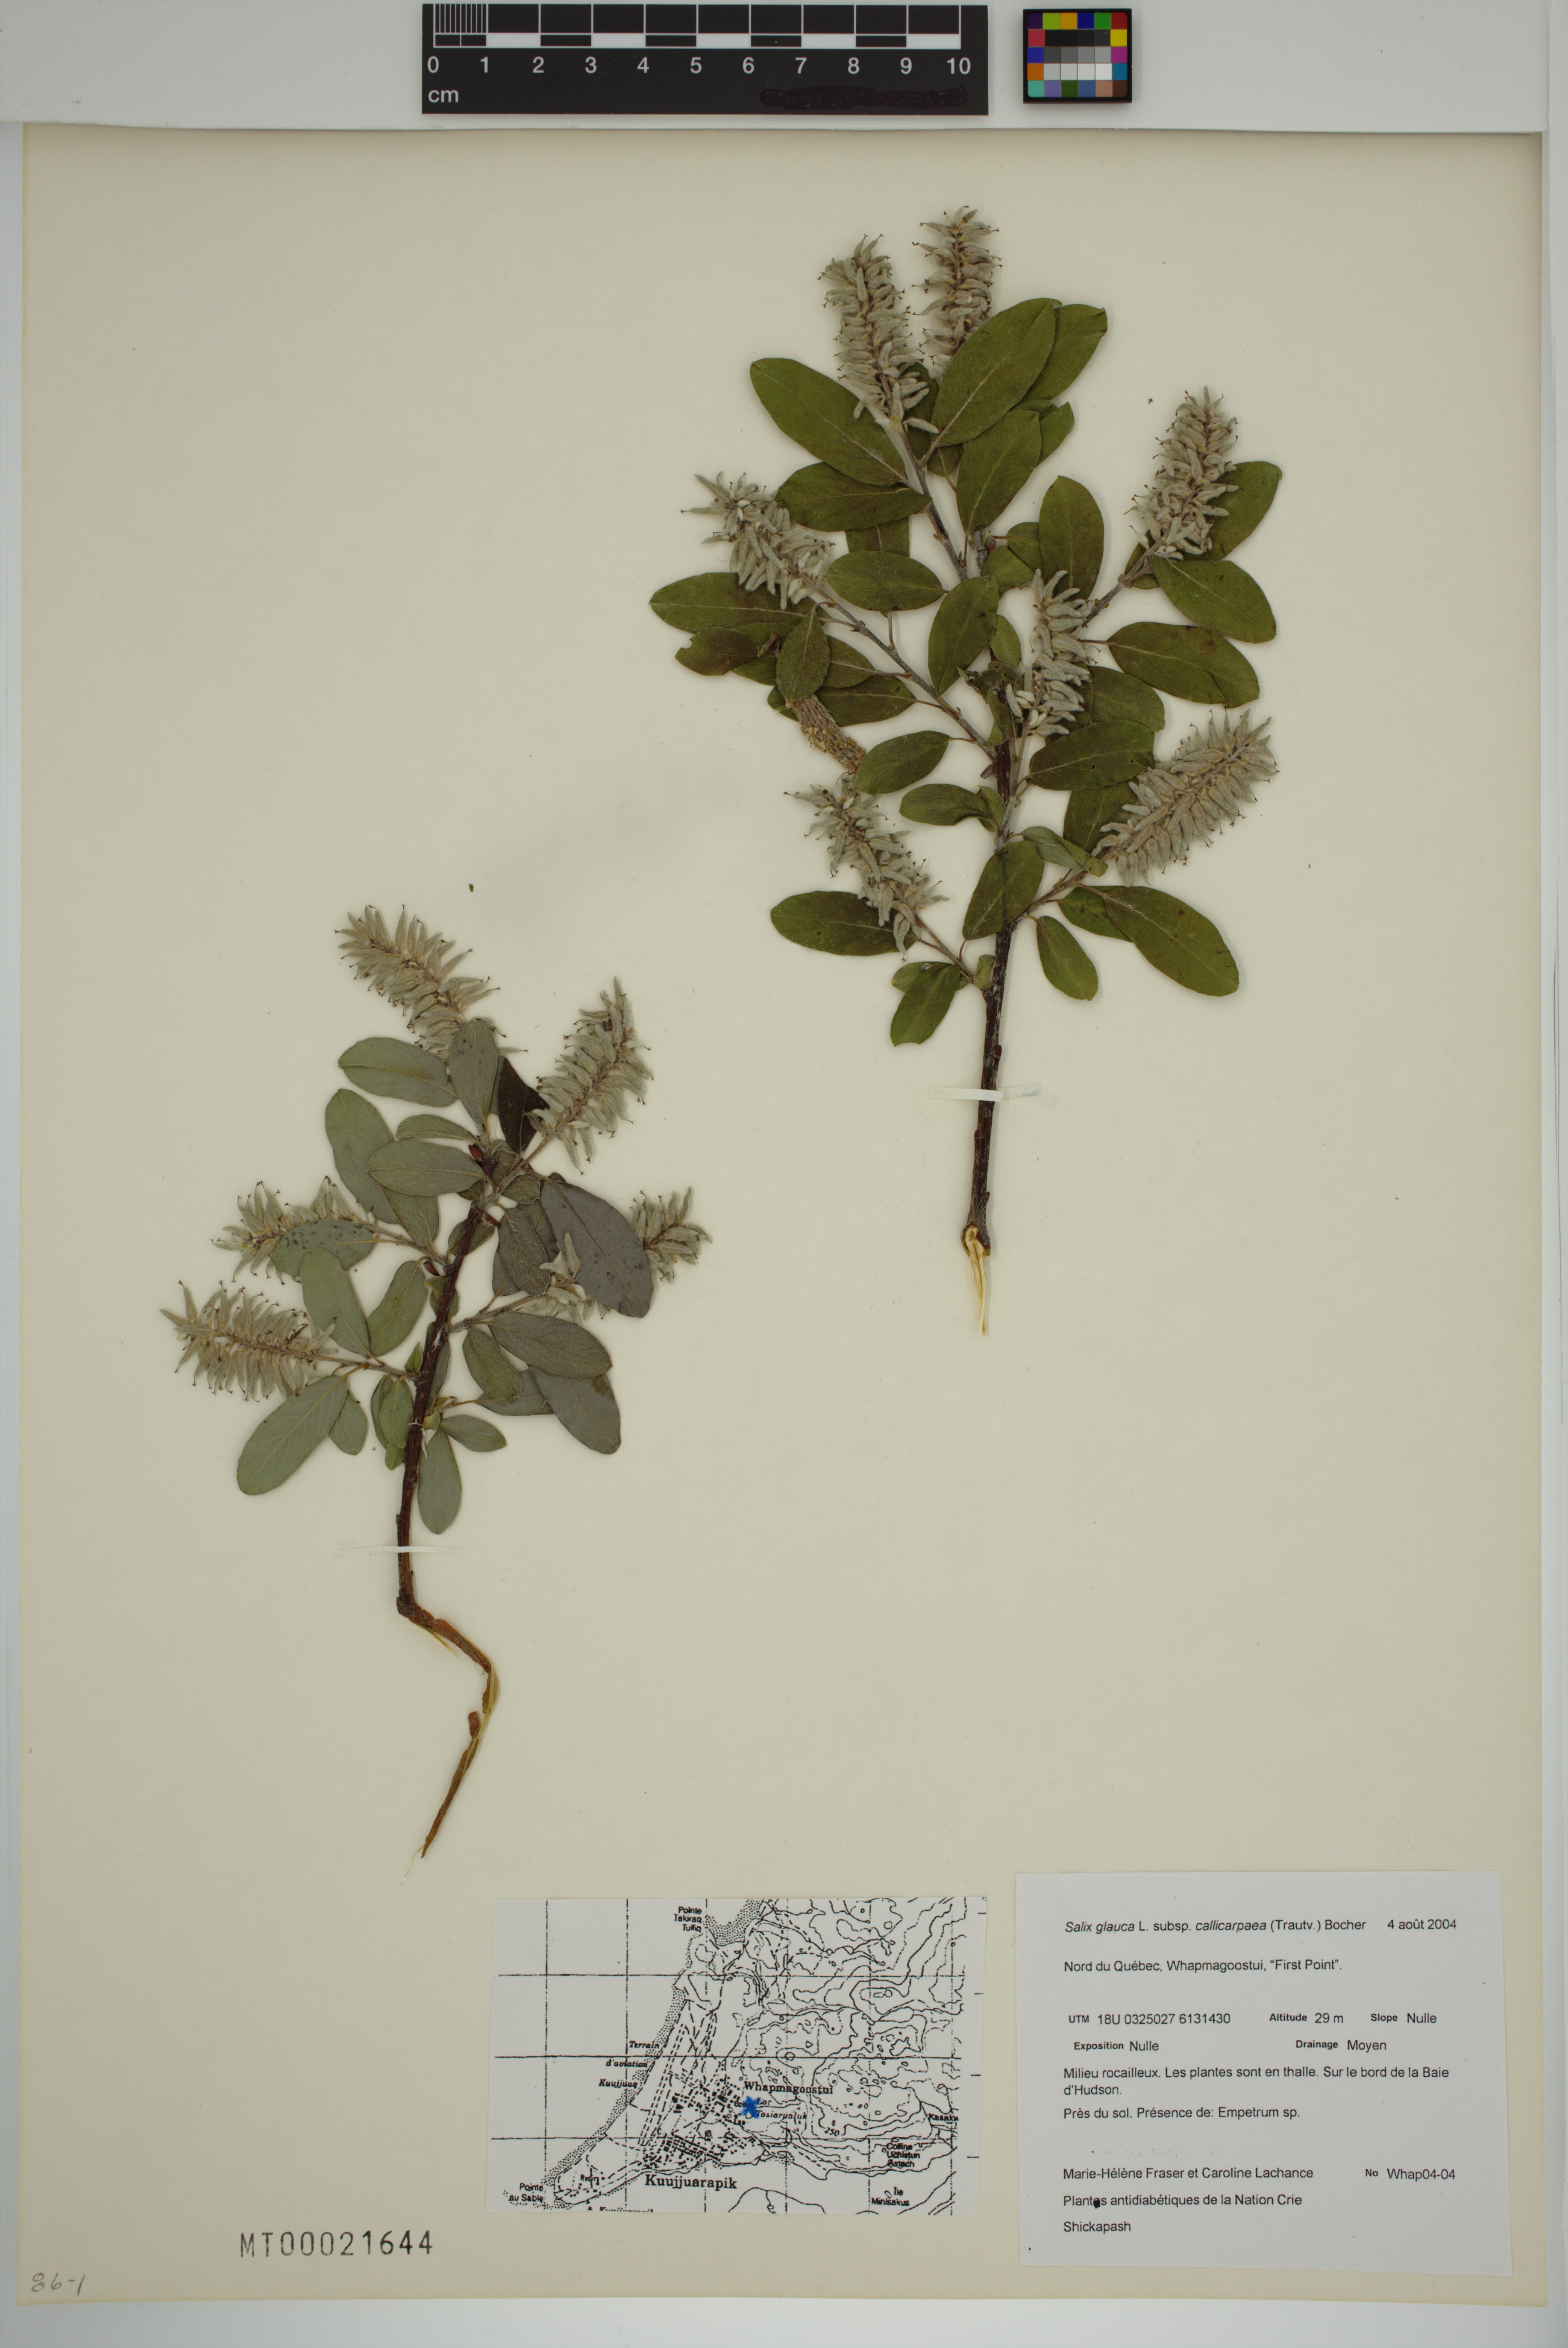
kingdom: Plantae
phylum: Tracheophyta
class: Magnoliopsida
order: Malpighiales
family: Salicaceae
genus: Salix
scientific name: Salix glauca
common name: Glaucous willow
